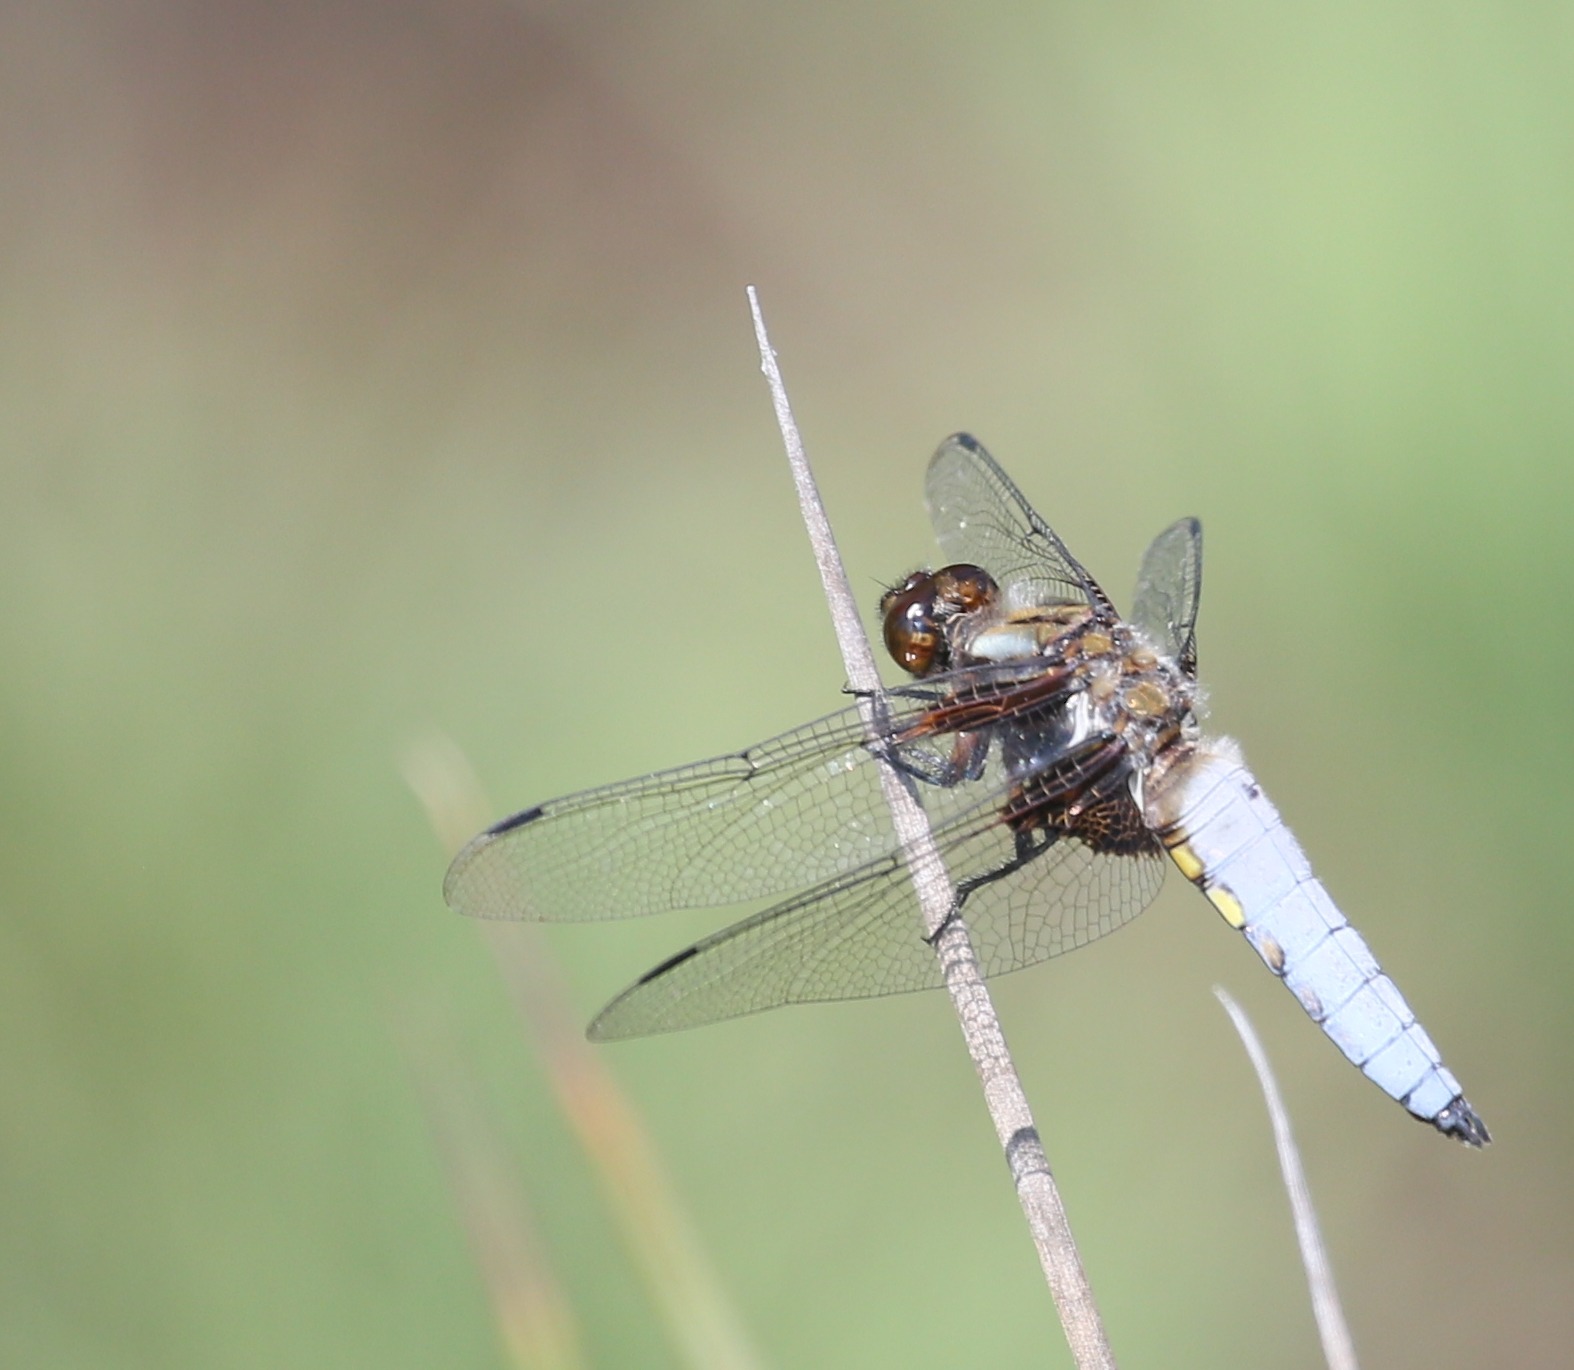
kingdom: Animalia
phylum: Arthropoda
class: Insecta
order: Odonata
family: Libellulidae
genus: Libellula
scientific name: Libellula depressa
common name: Blå libel
